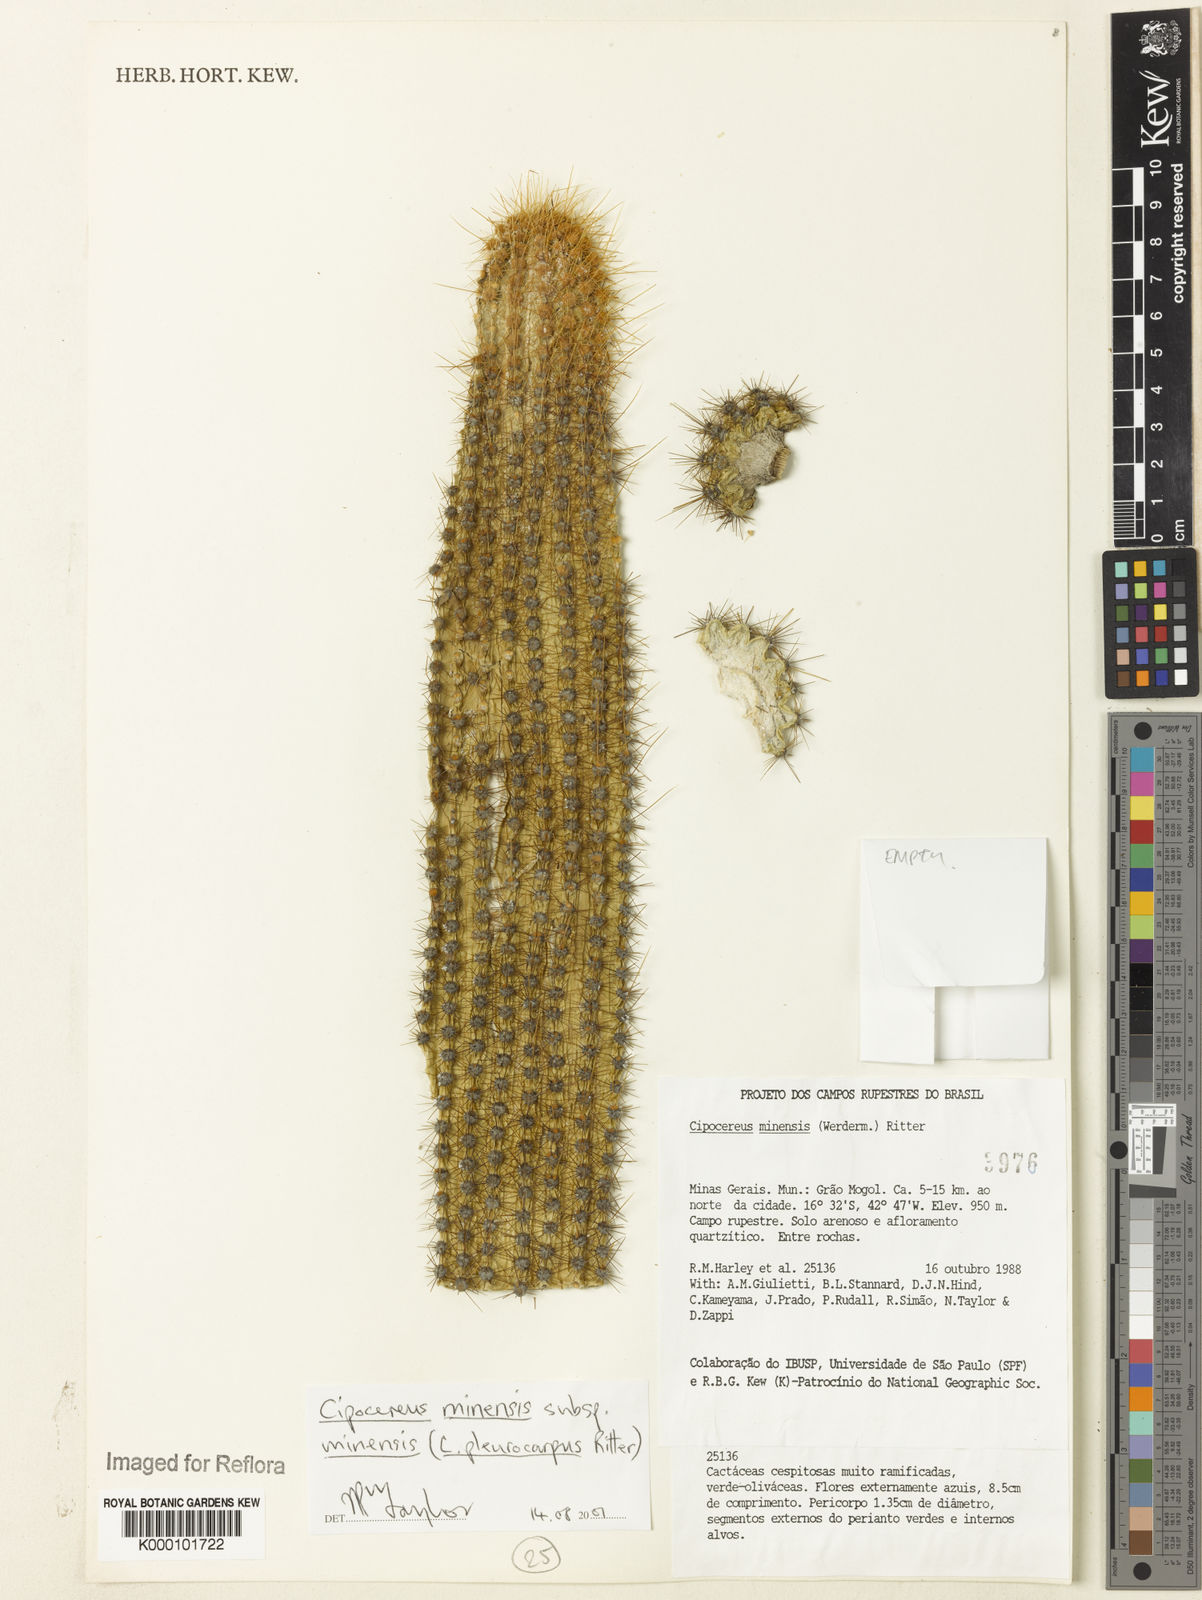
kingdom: Plantae
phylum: Tracheophyta
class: Magnoliopsida
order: Caryophyllales
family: Cactaceae
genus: Cipocereus
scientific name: Cipocereus minensis
